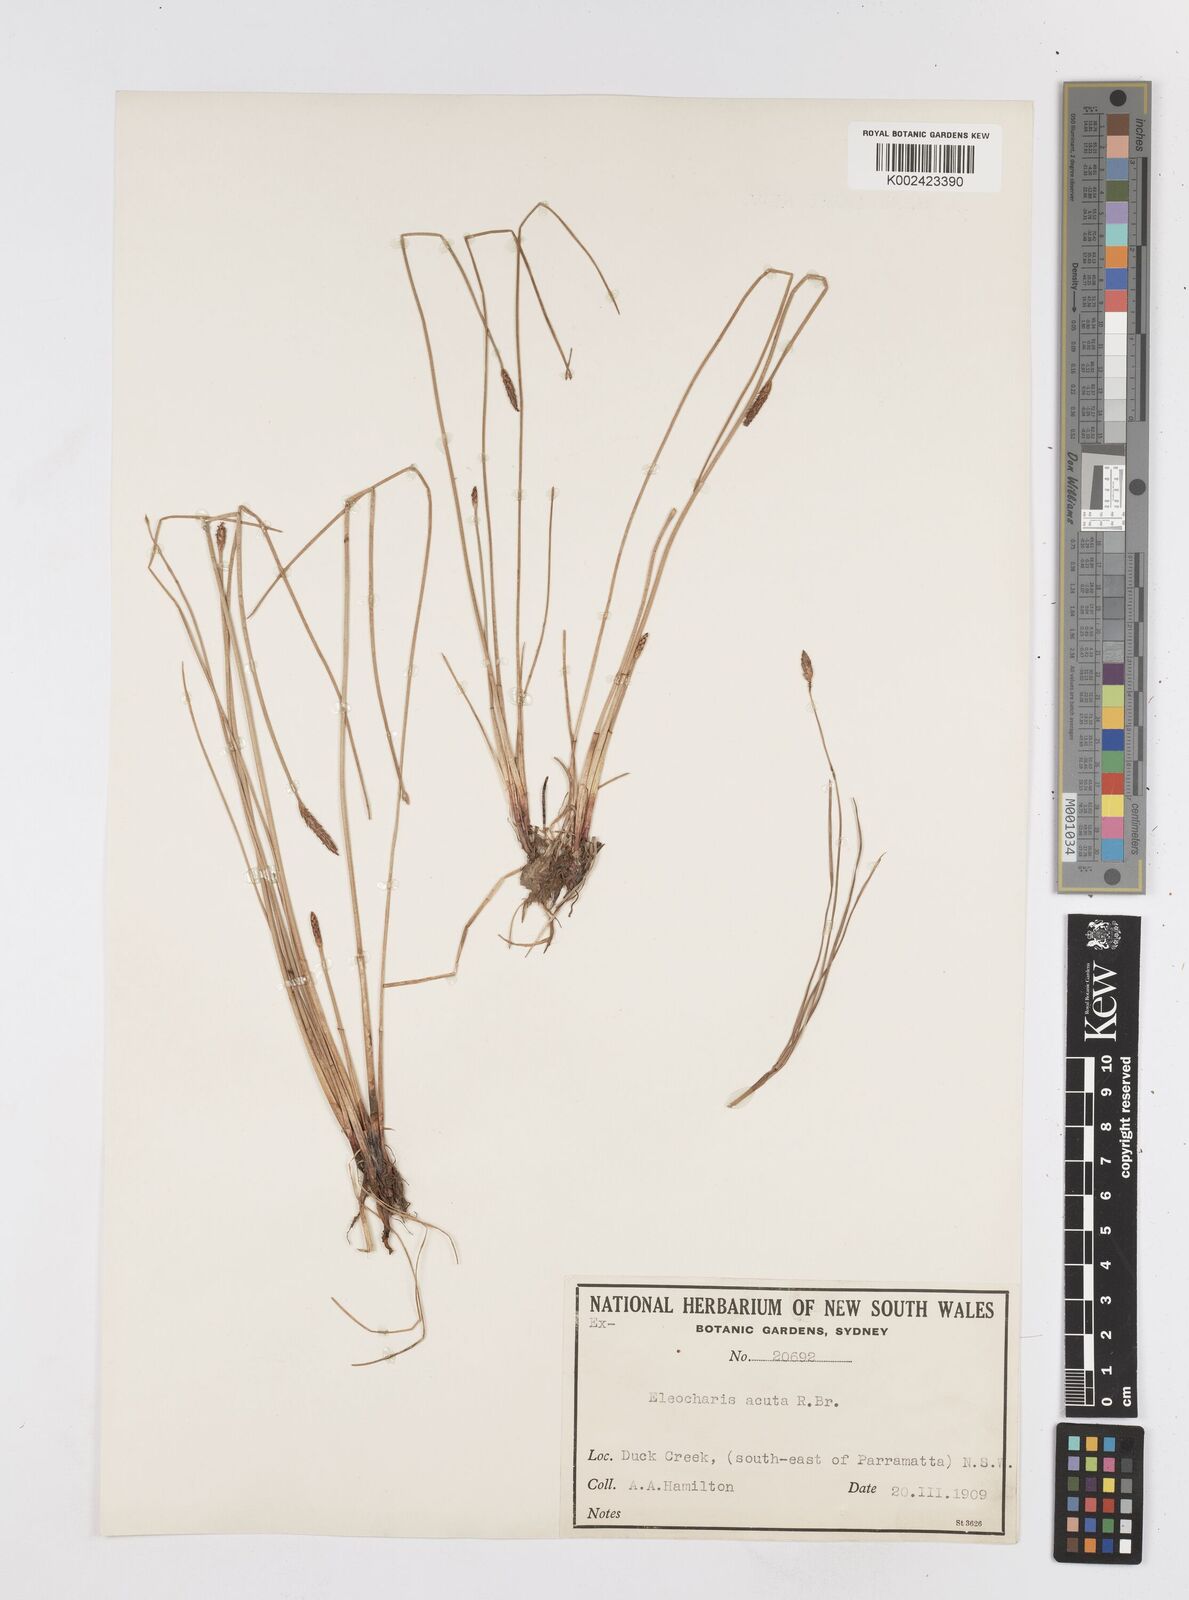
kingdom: Plantae
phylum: Tracheophyta
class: Liliopsida
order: Poales
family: Cyperaceae
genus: Eleocharis
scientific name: Eleocharis acuta
